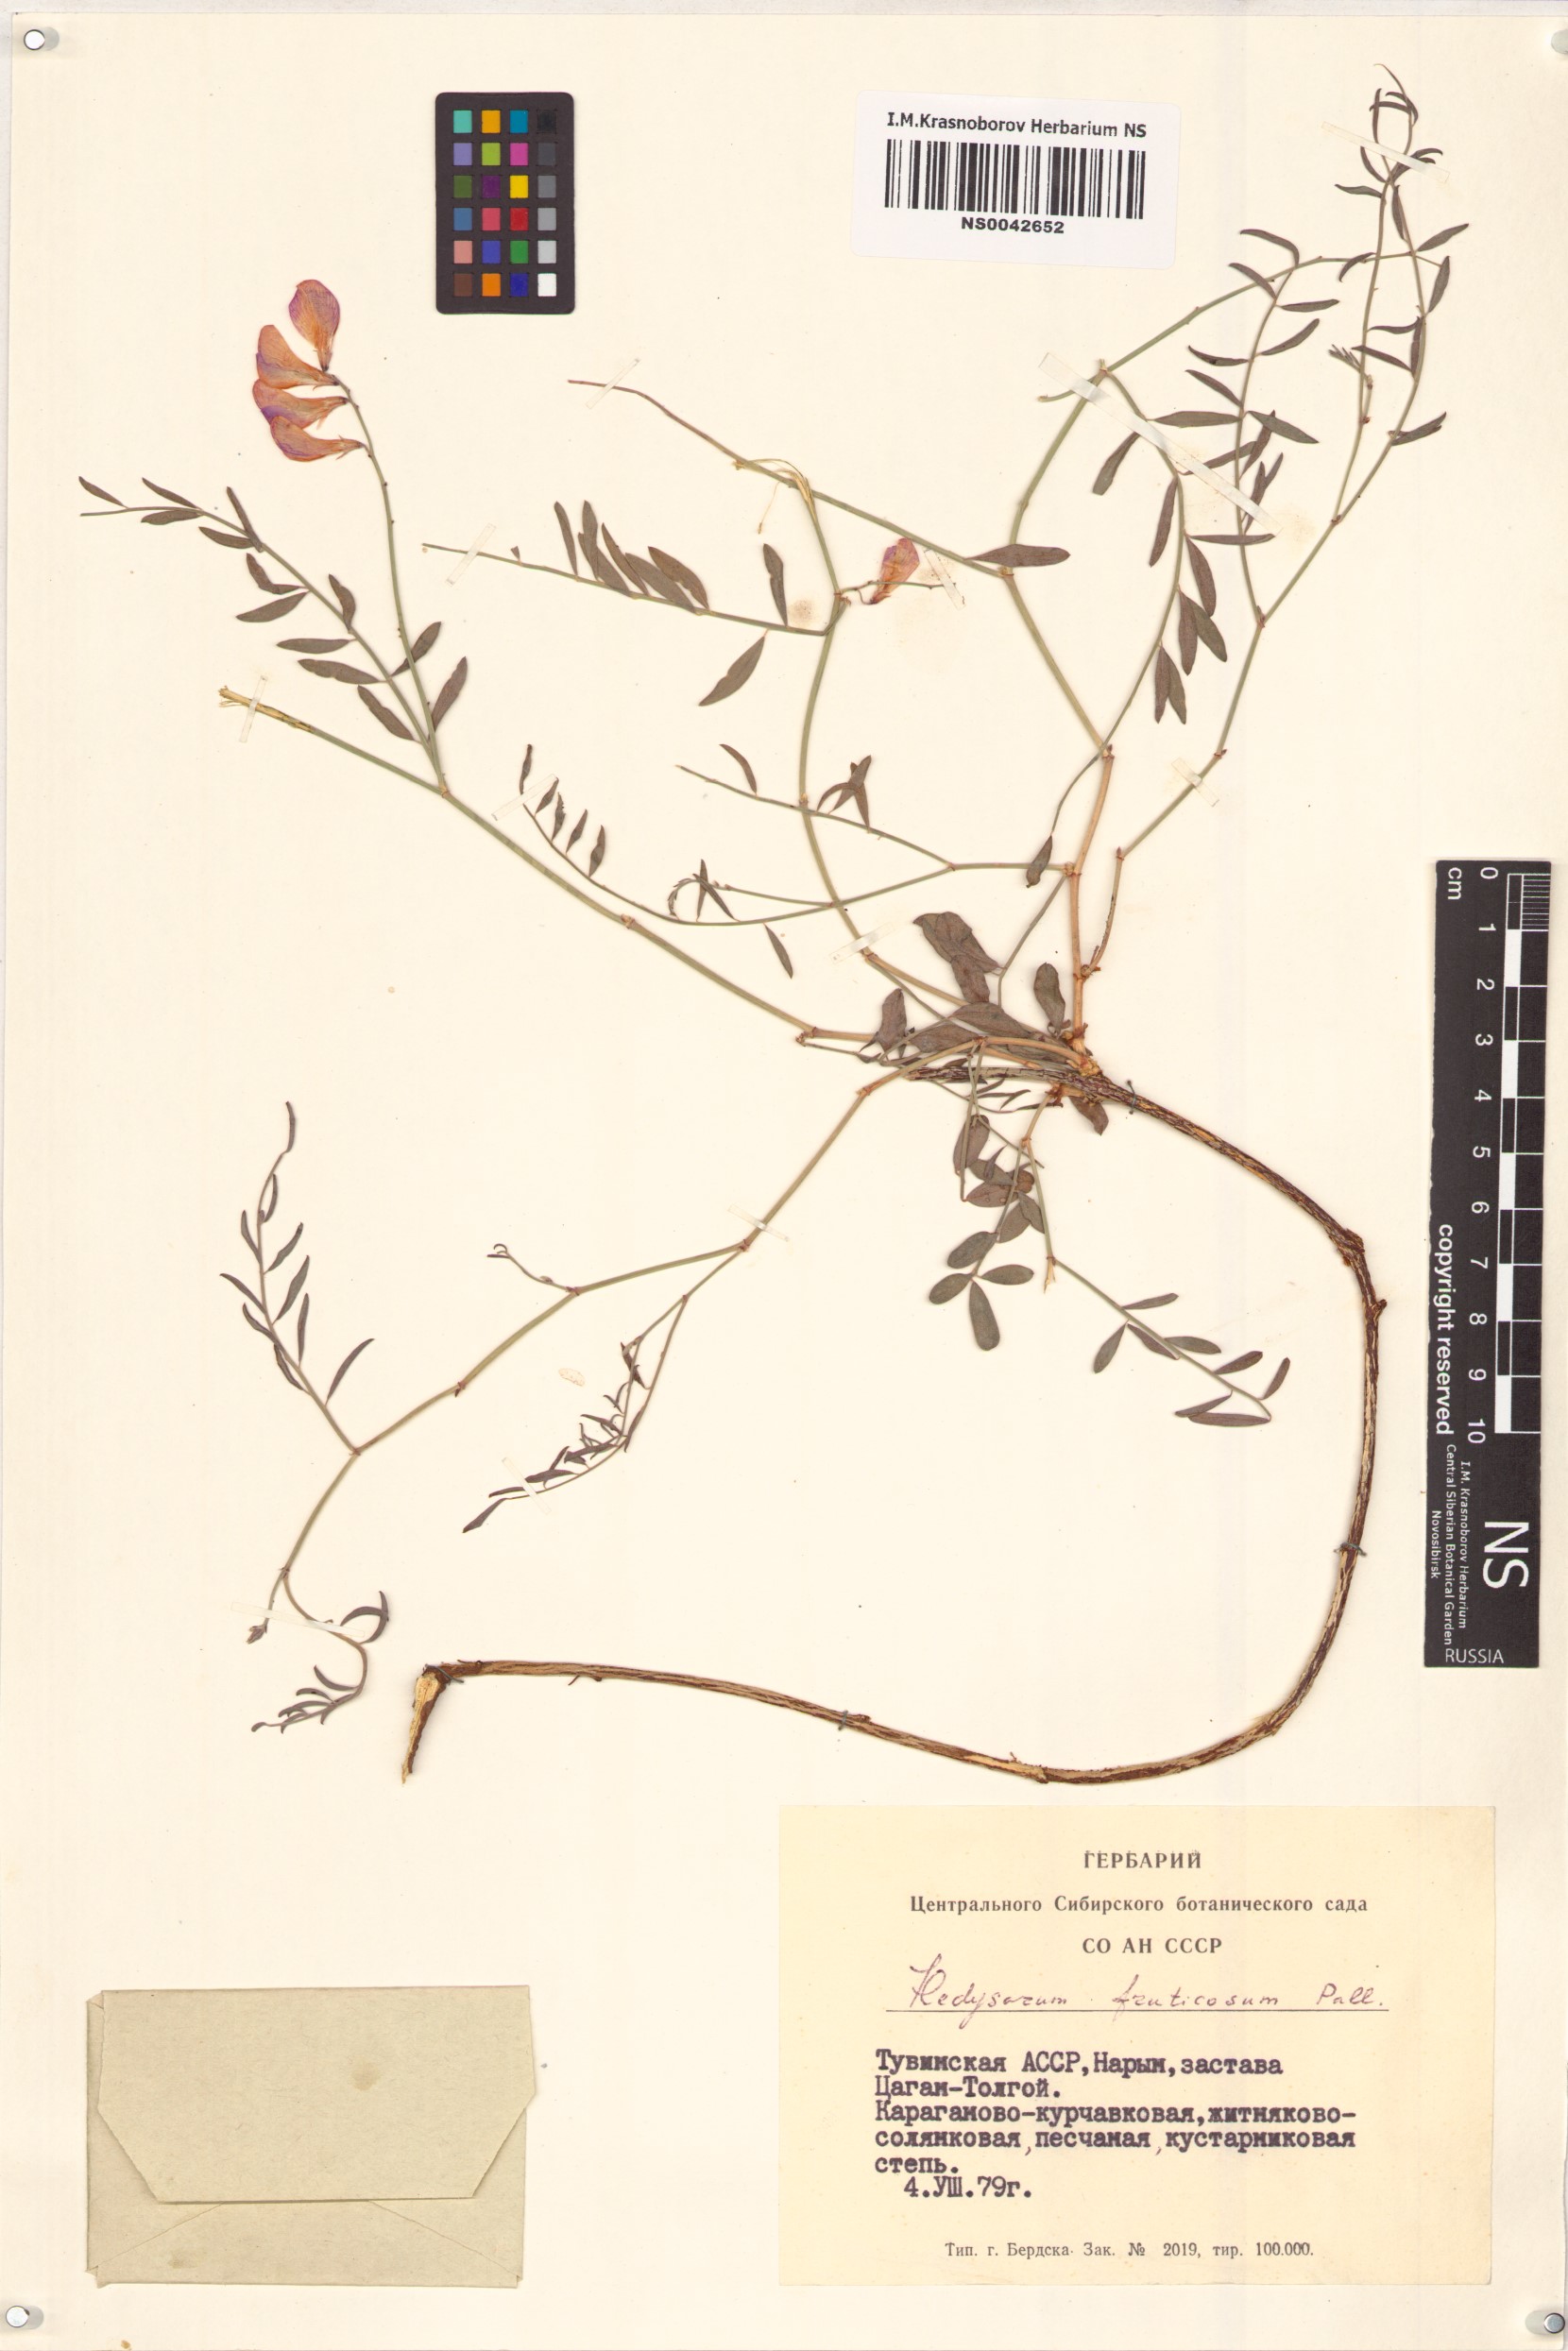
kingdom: Plantae
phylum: Tracheophyta
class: Magnoliopsida
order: Fabales
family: Fabaceae
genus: Corethrodendron
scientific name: Corethrodendron fruticosum
